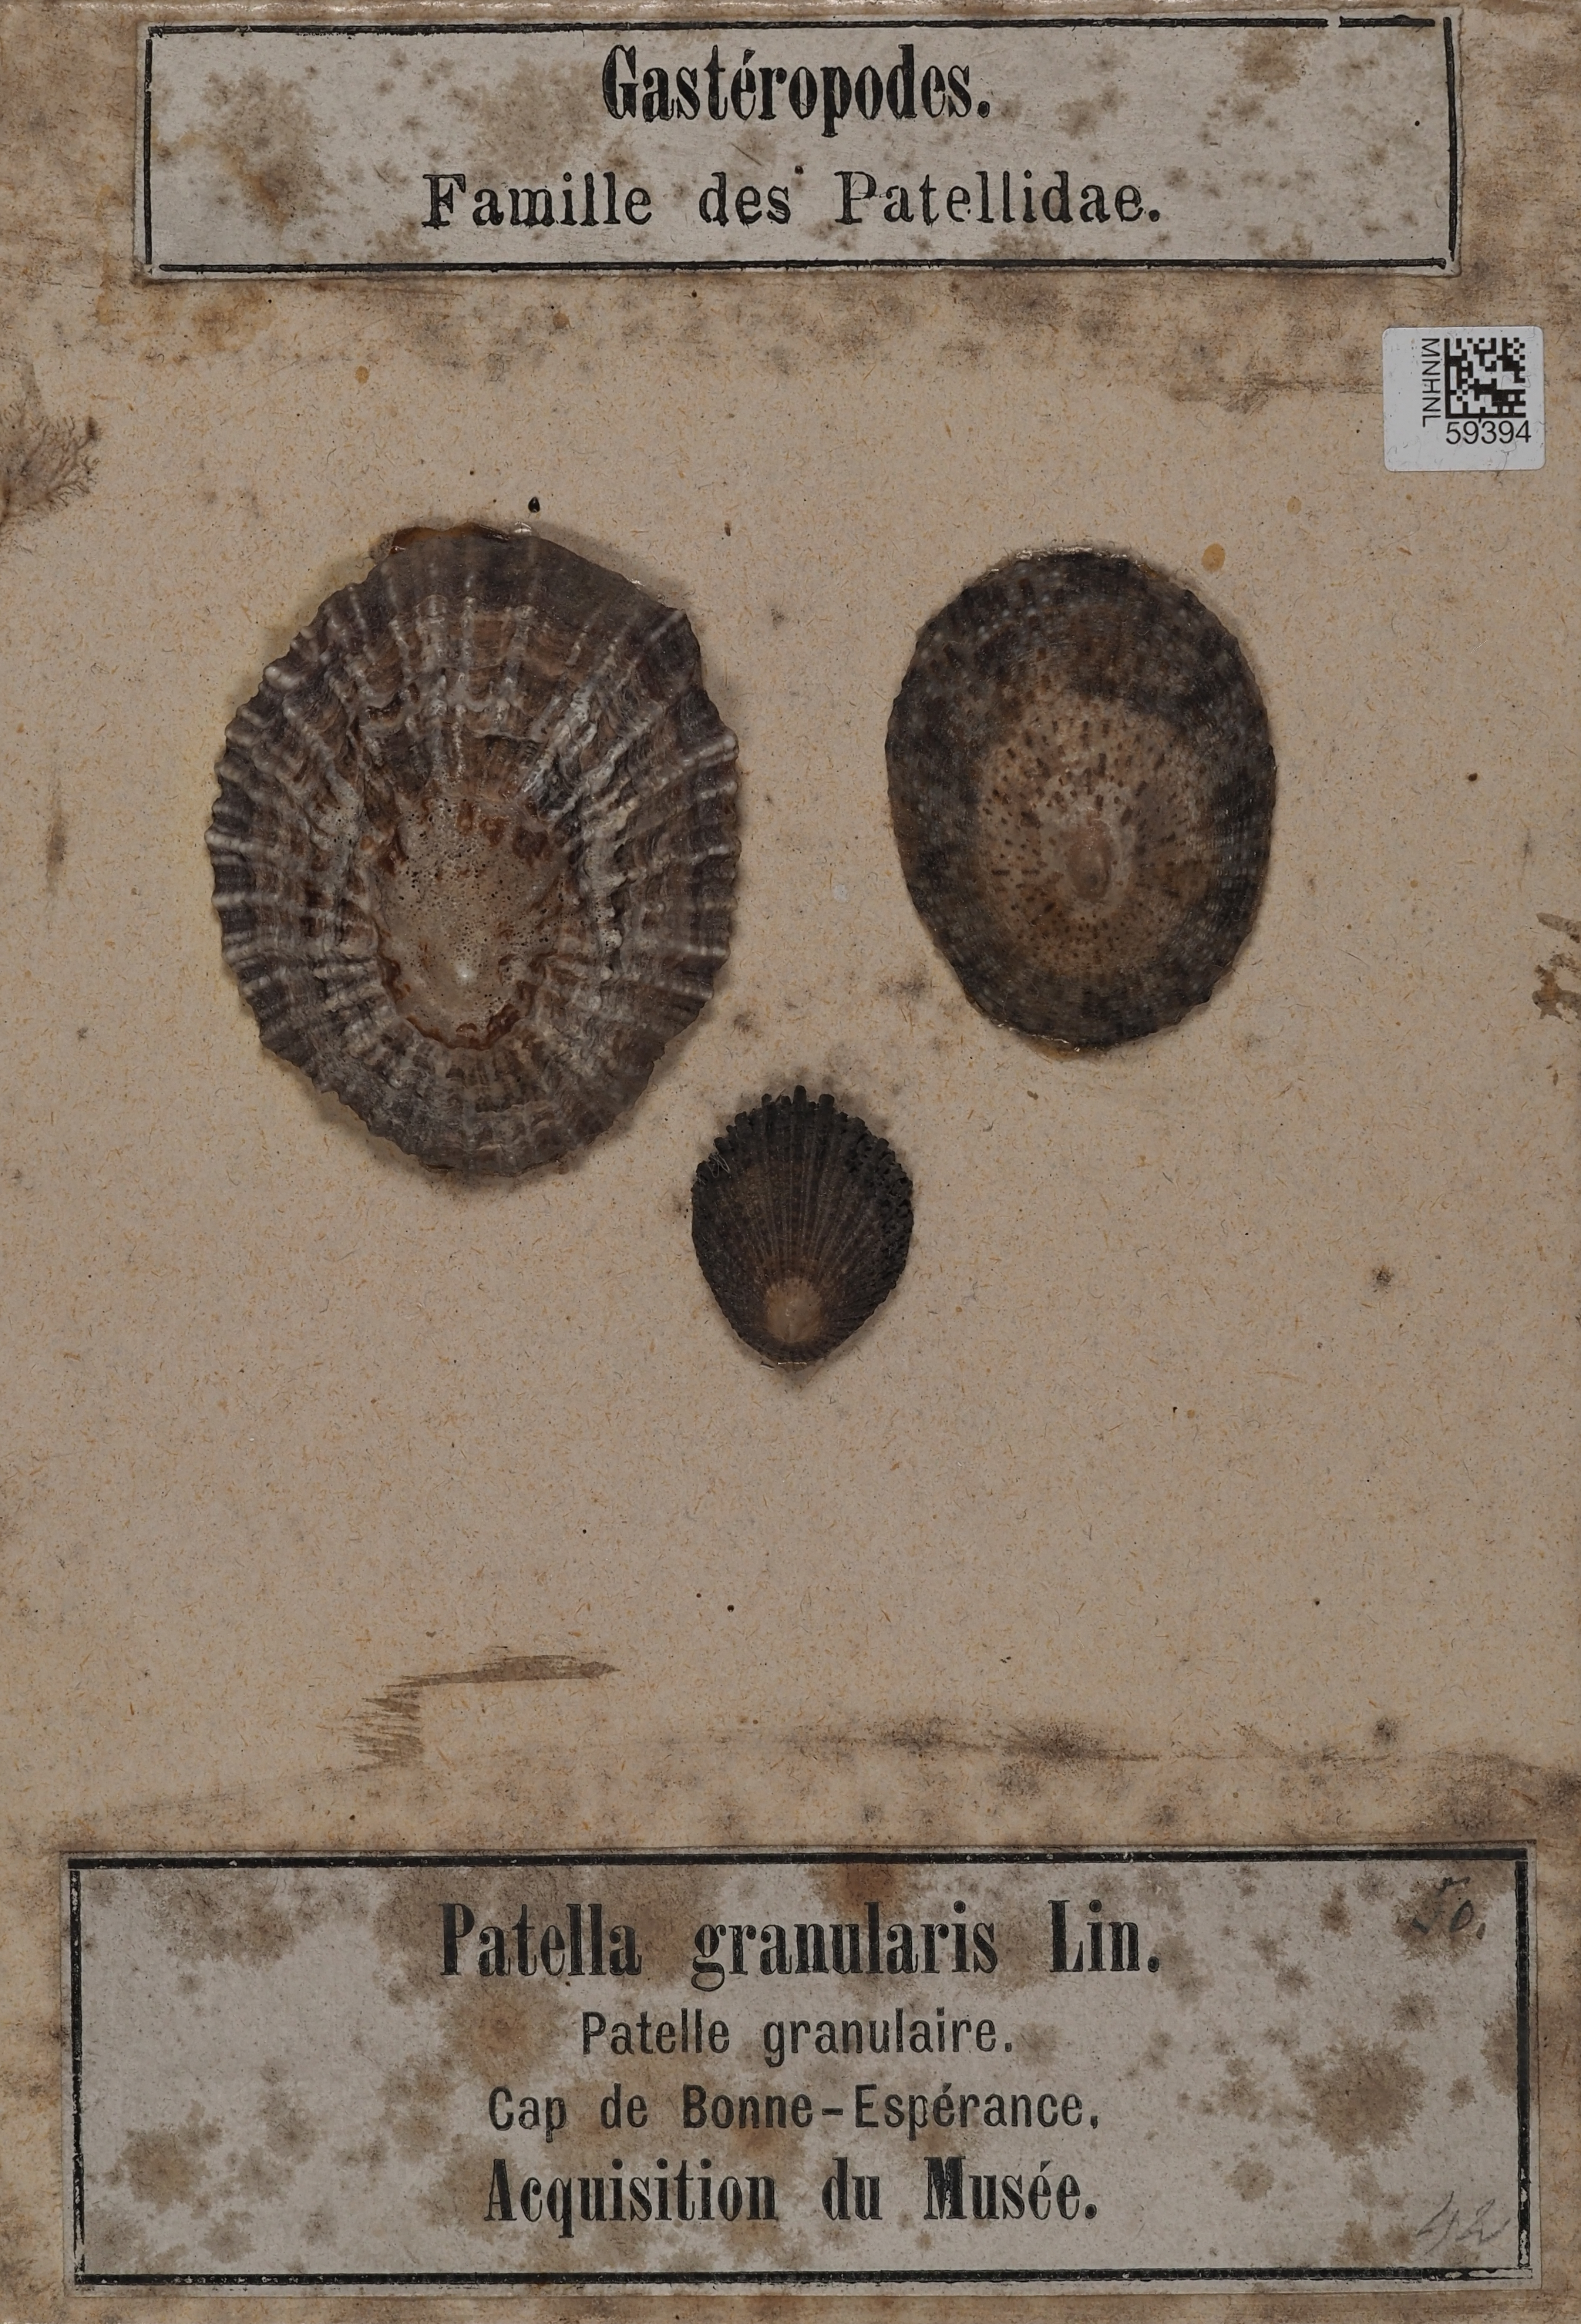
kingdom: Animalia
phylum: Mollusca
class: Gastropoda
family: Patellidae
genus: Scutellastra
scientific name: Scutellastra granularis
